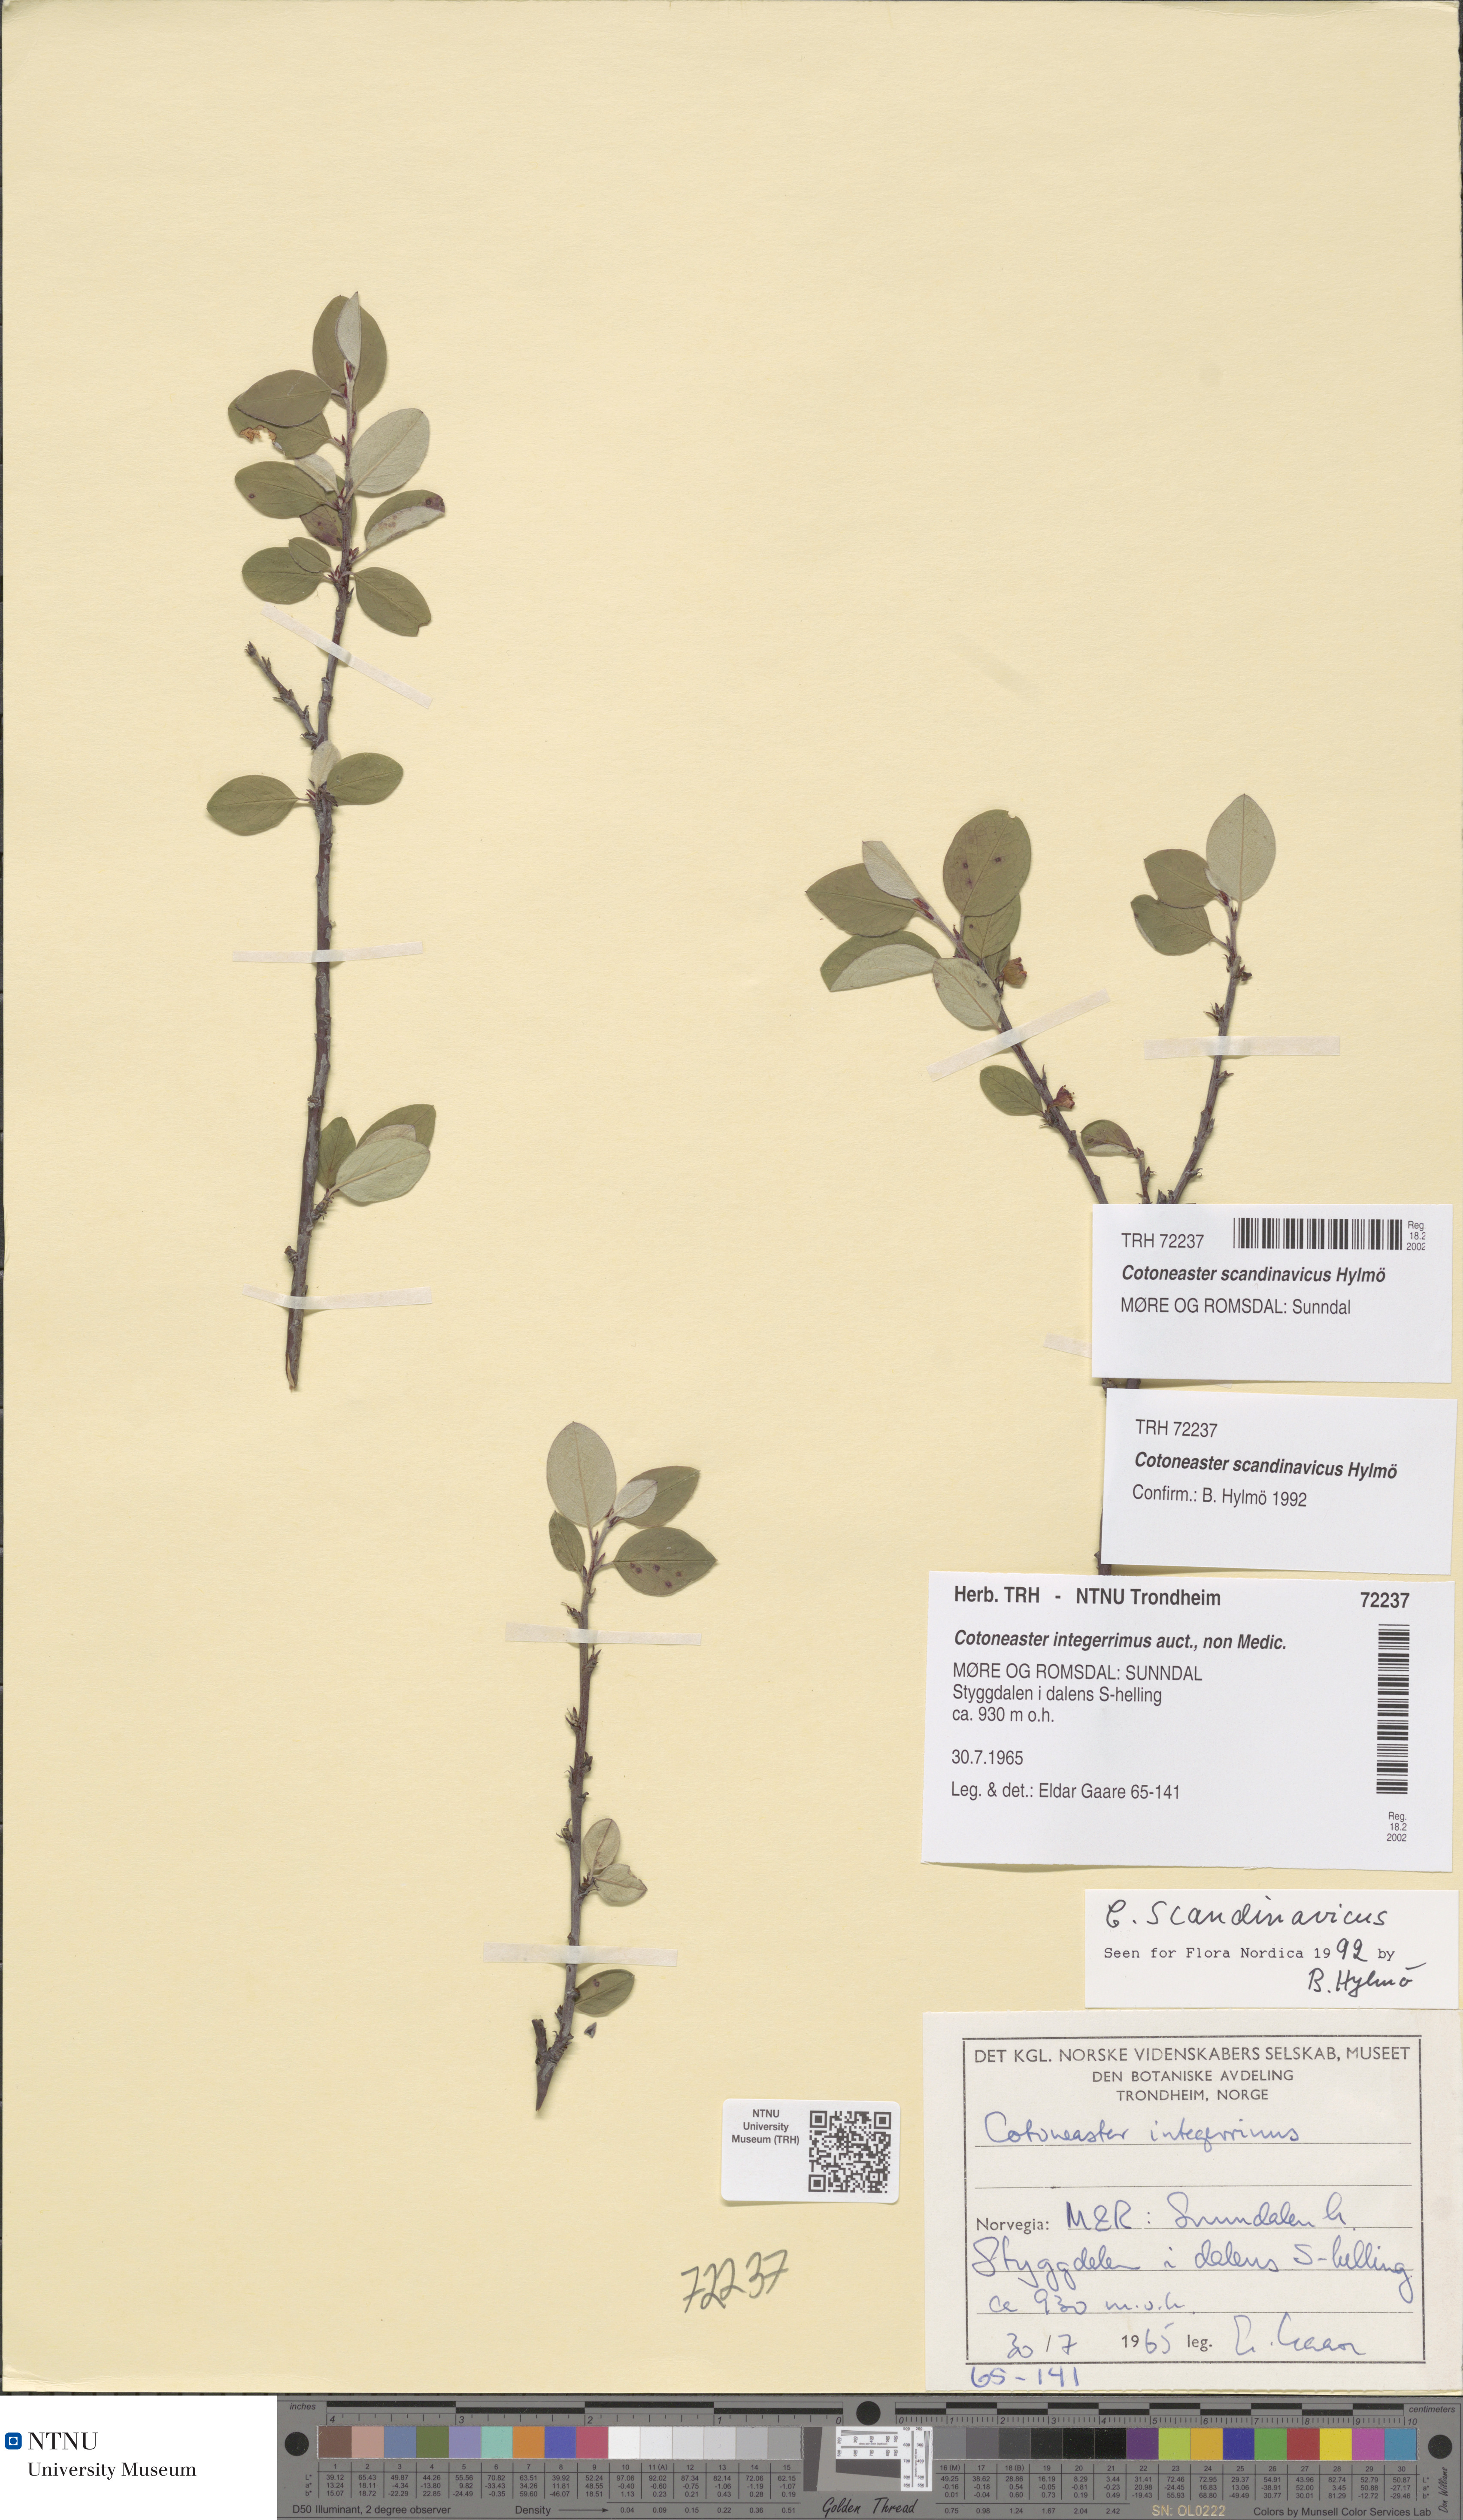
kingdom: Plantae
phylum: Tracheophyta
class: Magnoliopsida
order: Rosales
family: Rosaceae
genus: Cotoneaster
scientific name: Cotoneaster integerrimus
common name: Wild cotoneaster
